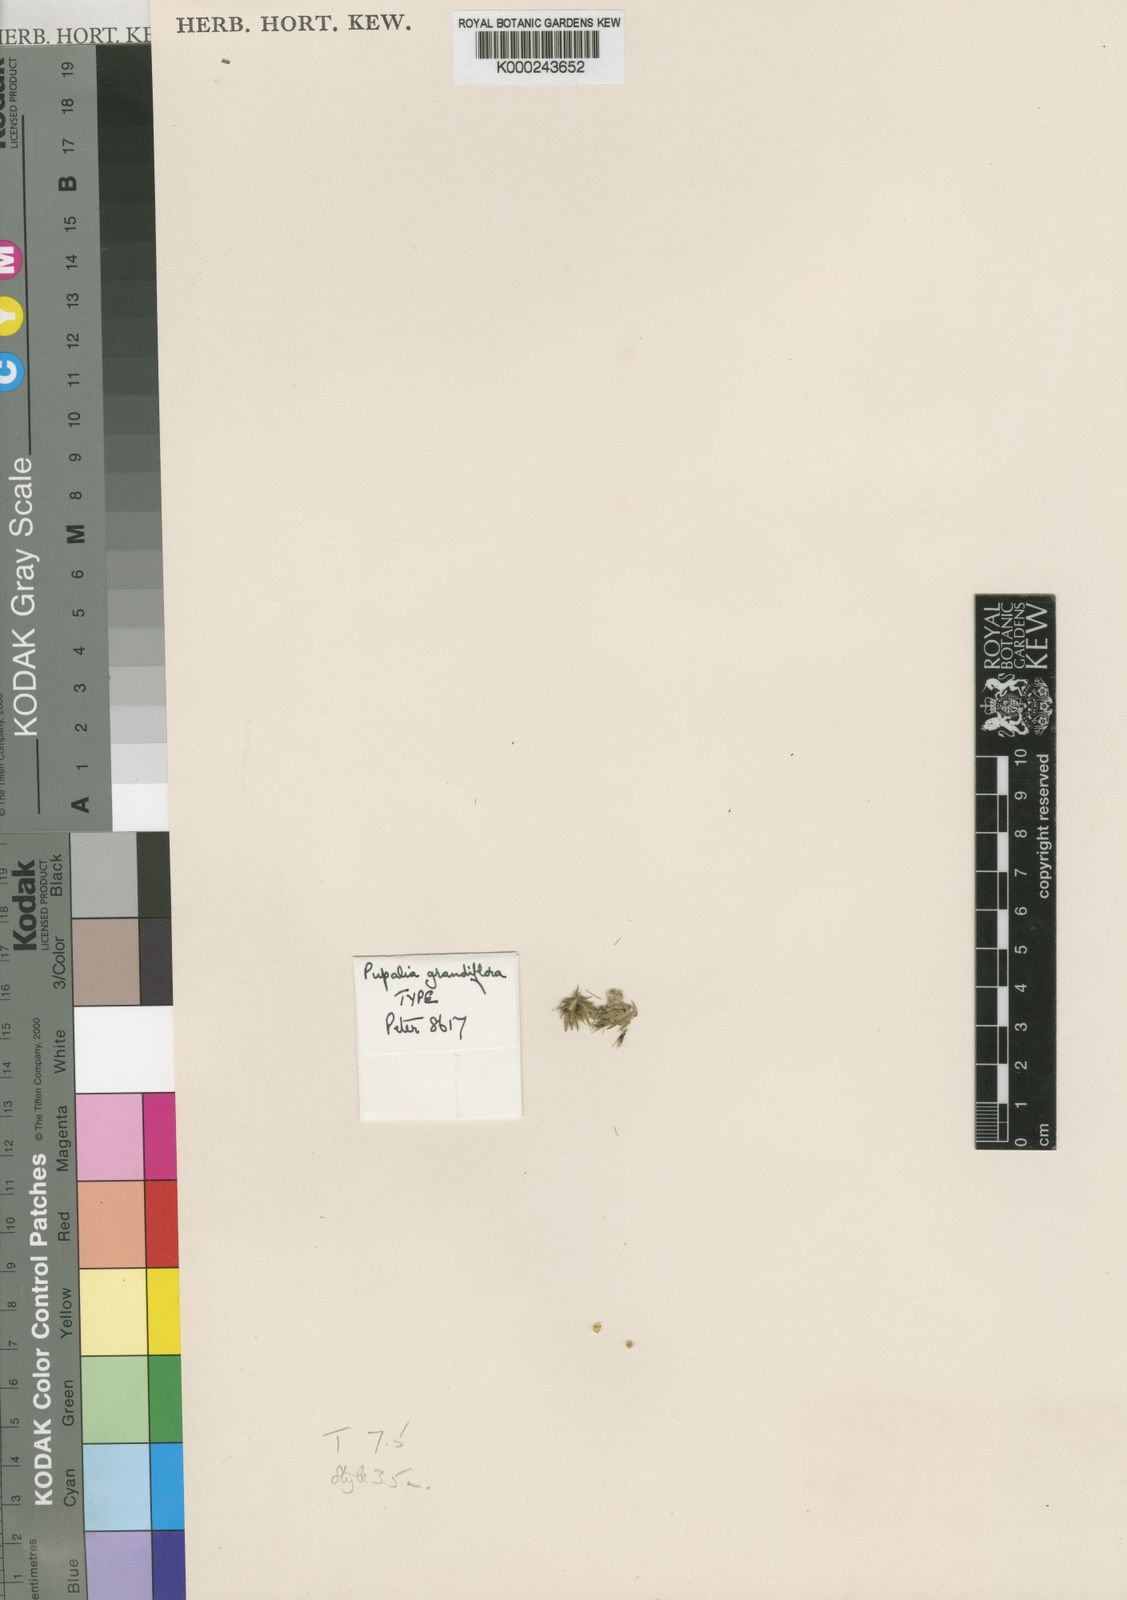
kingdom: Plantae
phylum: Tracheophyta
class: Magnoliopsida
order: Caryophyllales
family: Amaranthaceae
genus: Pupalia
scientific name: Pupalia grandiflora
